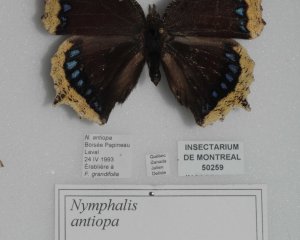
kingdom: Animalia
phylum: Arthropoda
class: Insecta
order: Lepidoptera
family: Nymphalidae
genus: Nymphalis
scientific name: Nymphalis antiopa
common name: Mourning Cloak
